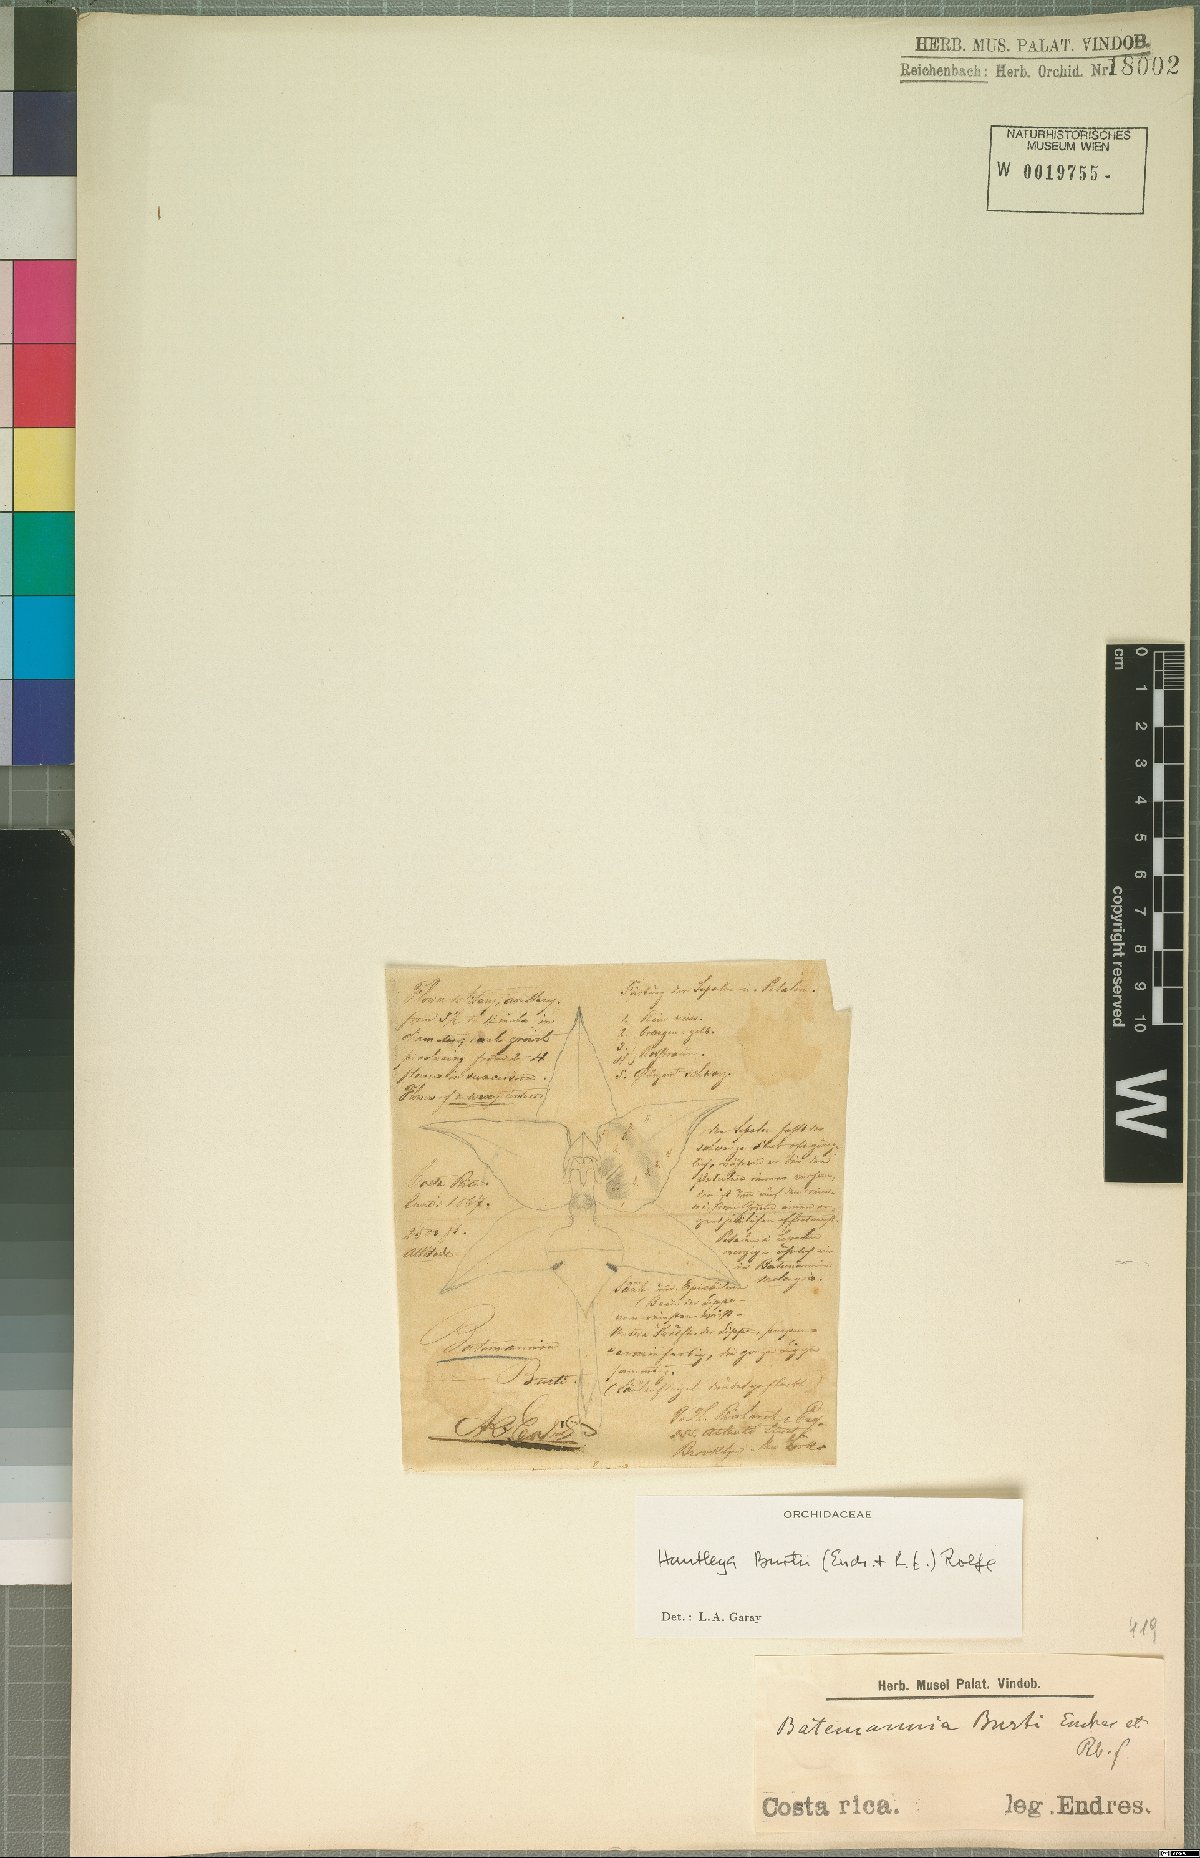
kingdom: Plantae
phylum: Tracheophyta
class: Liliopsida
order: Asparagales
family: Orchidaceae
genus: Huntleya
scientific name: Huntleya burtii
